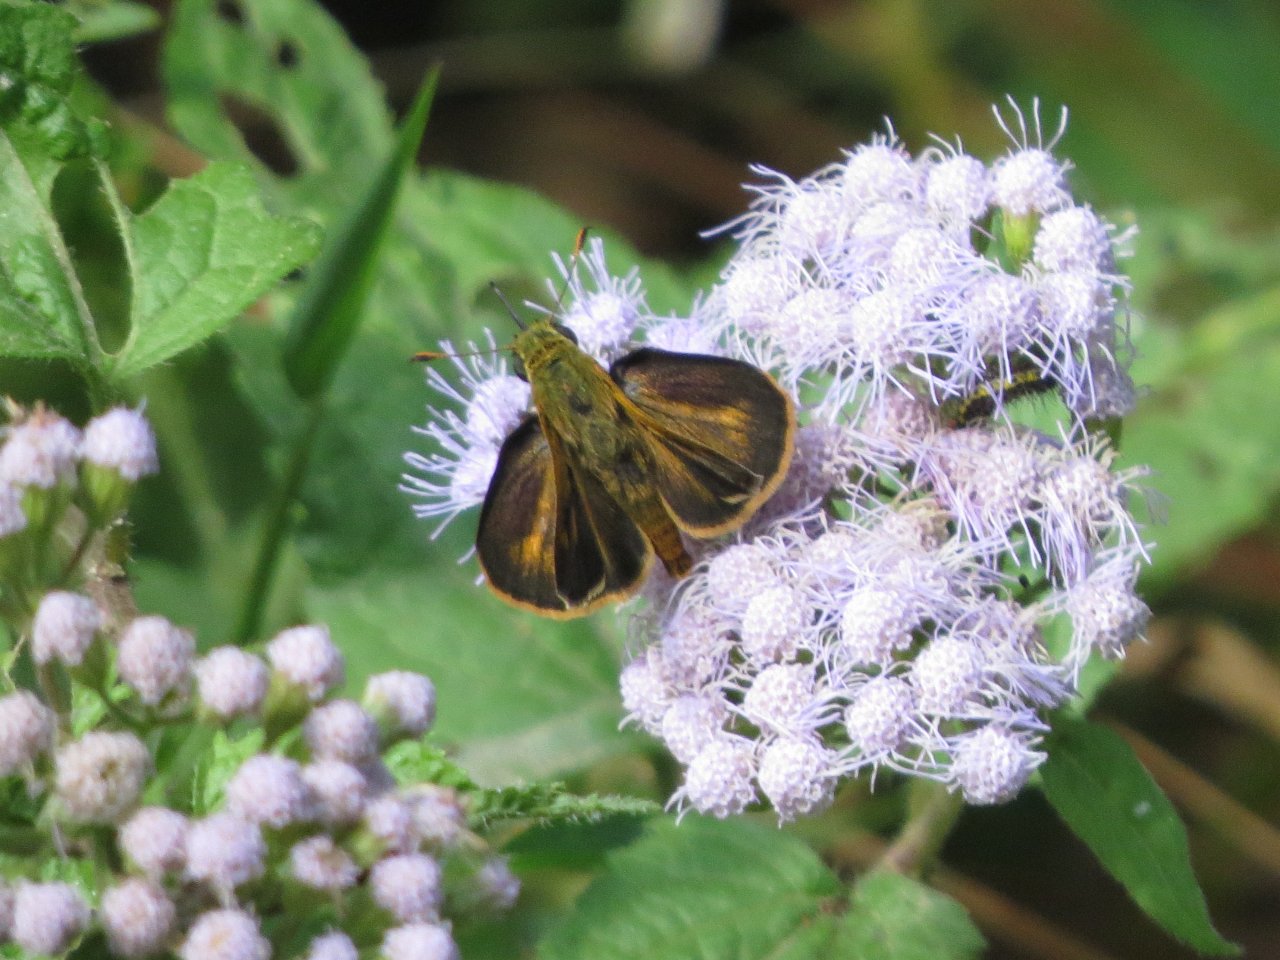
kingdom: Animalia
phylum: Arthropoda
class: Insecta
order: Lepidoptera
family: Hesperiidae
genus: Wallengrenia
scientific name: Wallengrenia otho
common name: Southern Broken-Dash
